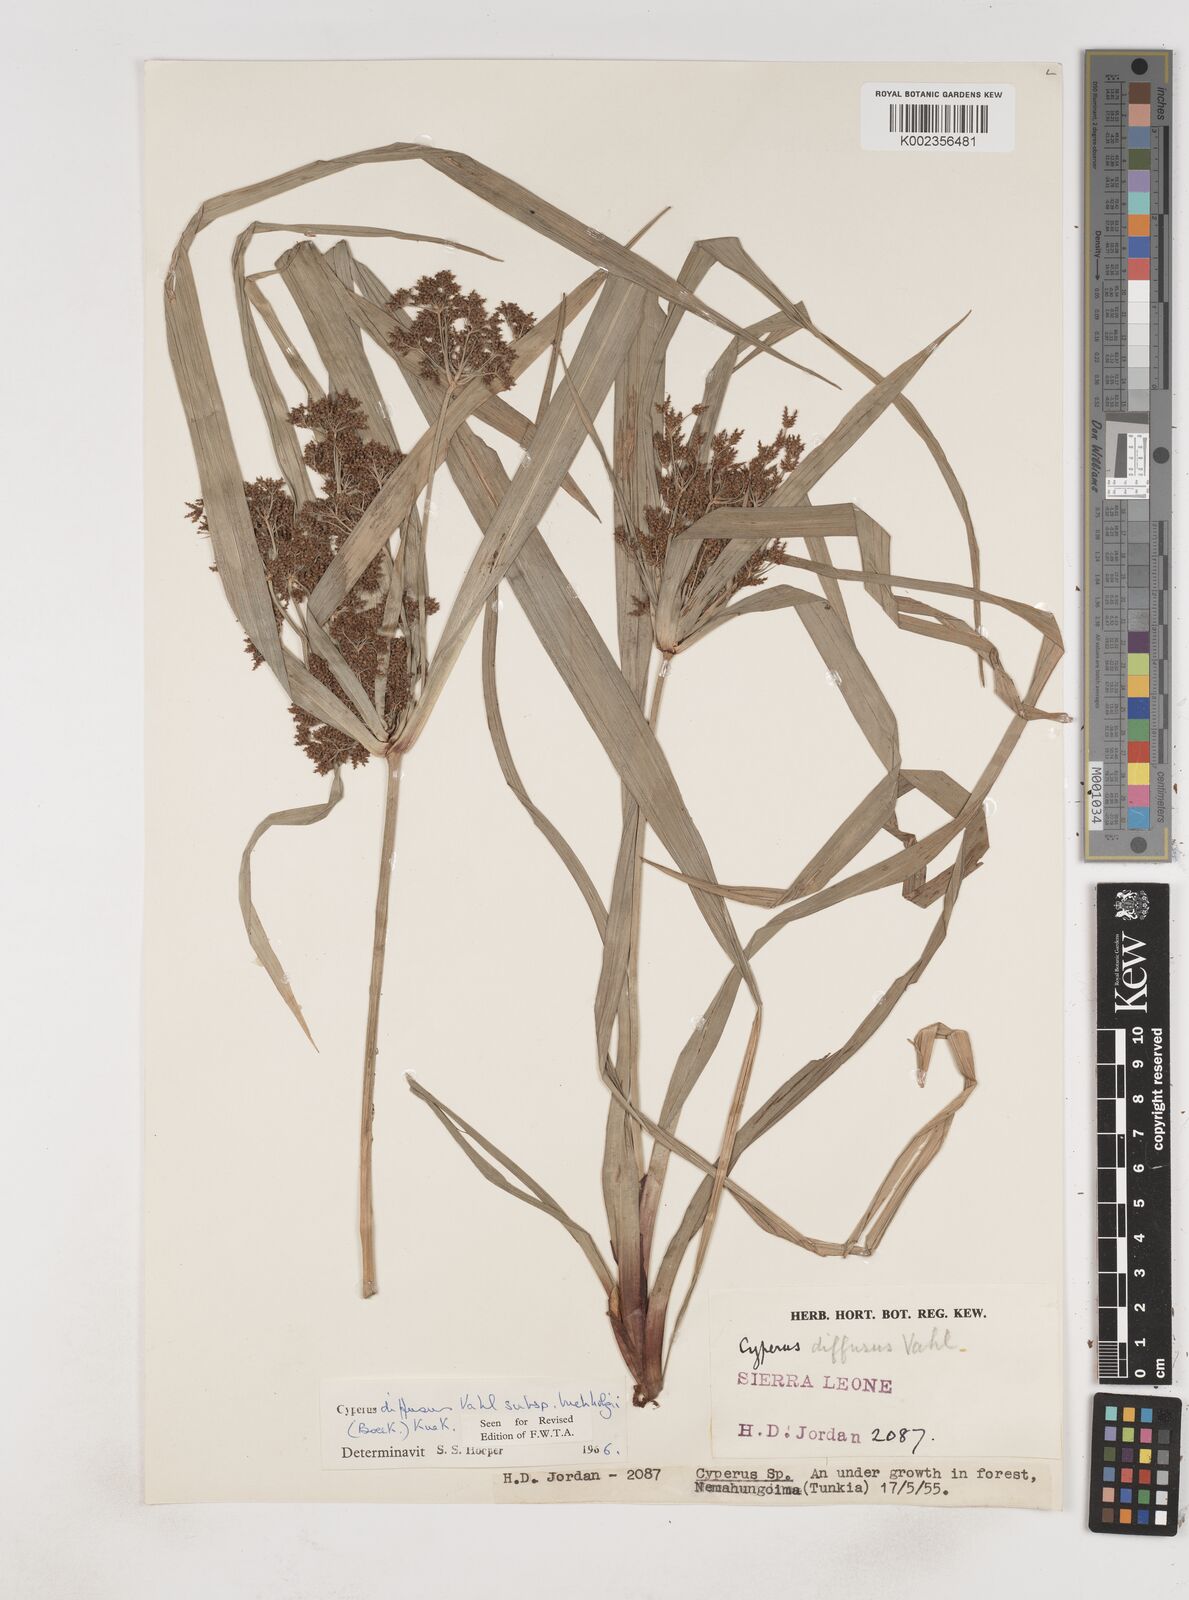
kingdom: Plantae
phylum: Tracheophyta
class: Liliopsida
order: Poales
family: Cyperaceae
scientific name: Cyperaceae
